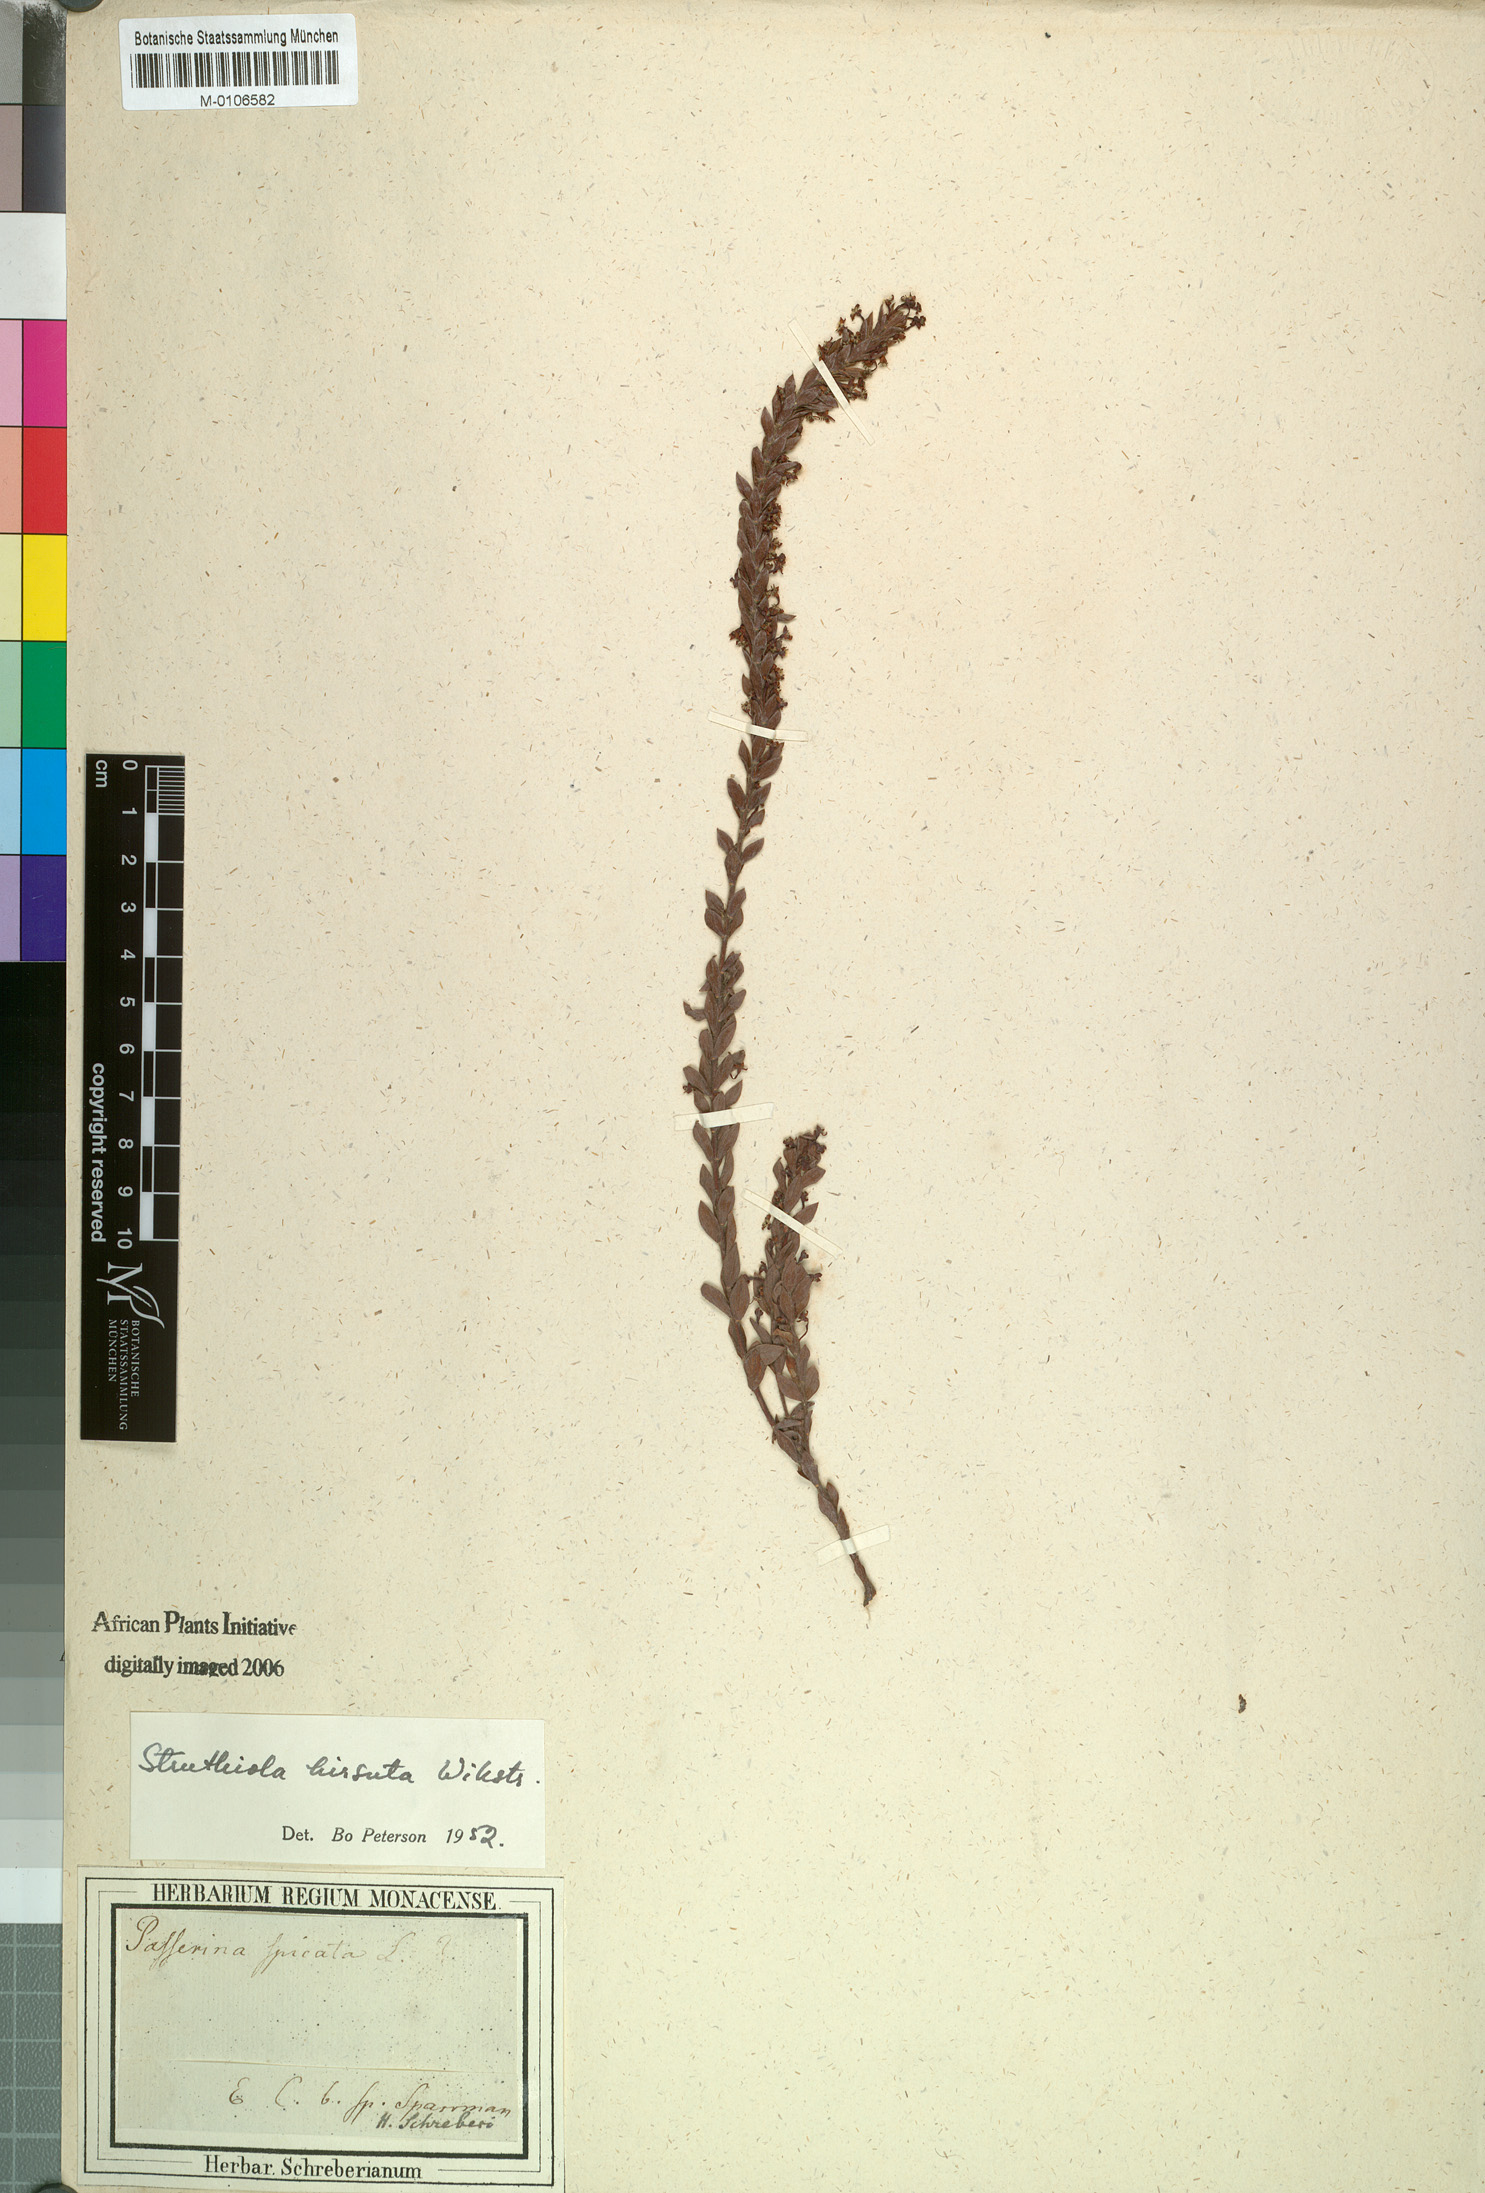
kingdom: Plantae
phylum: Tracheophyta
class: Magnoliopsida
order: Malvales
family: Thymelaeaceae
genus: Struthiola
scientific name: Struthiola hirsuta
